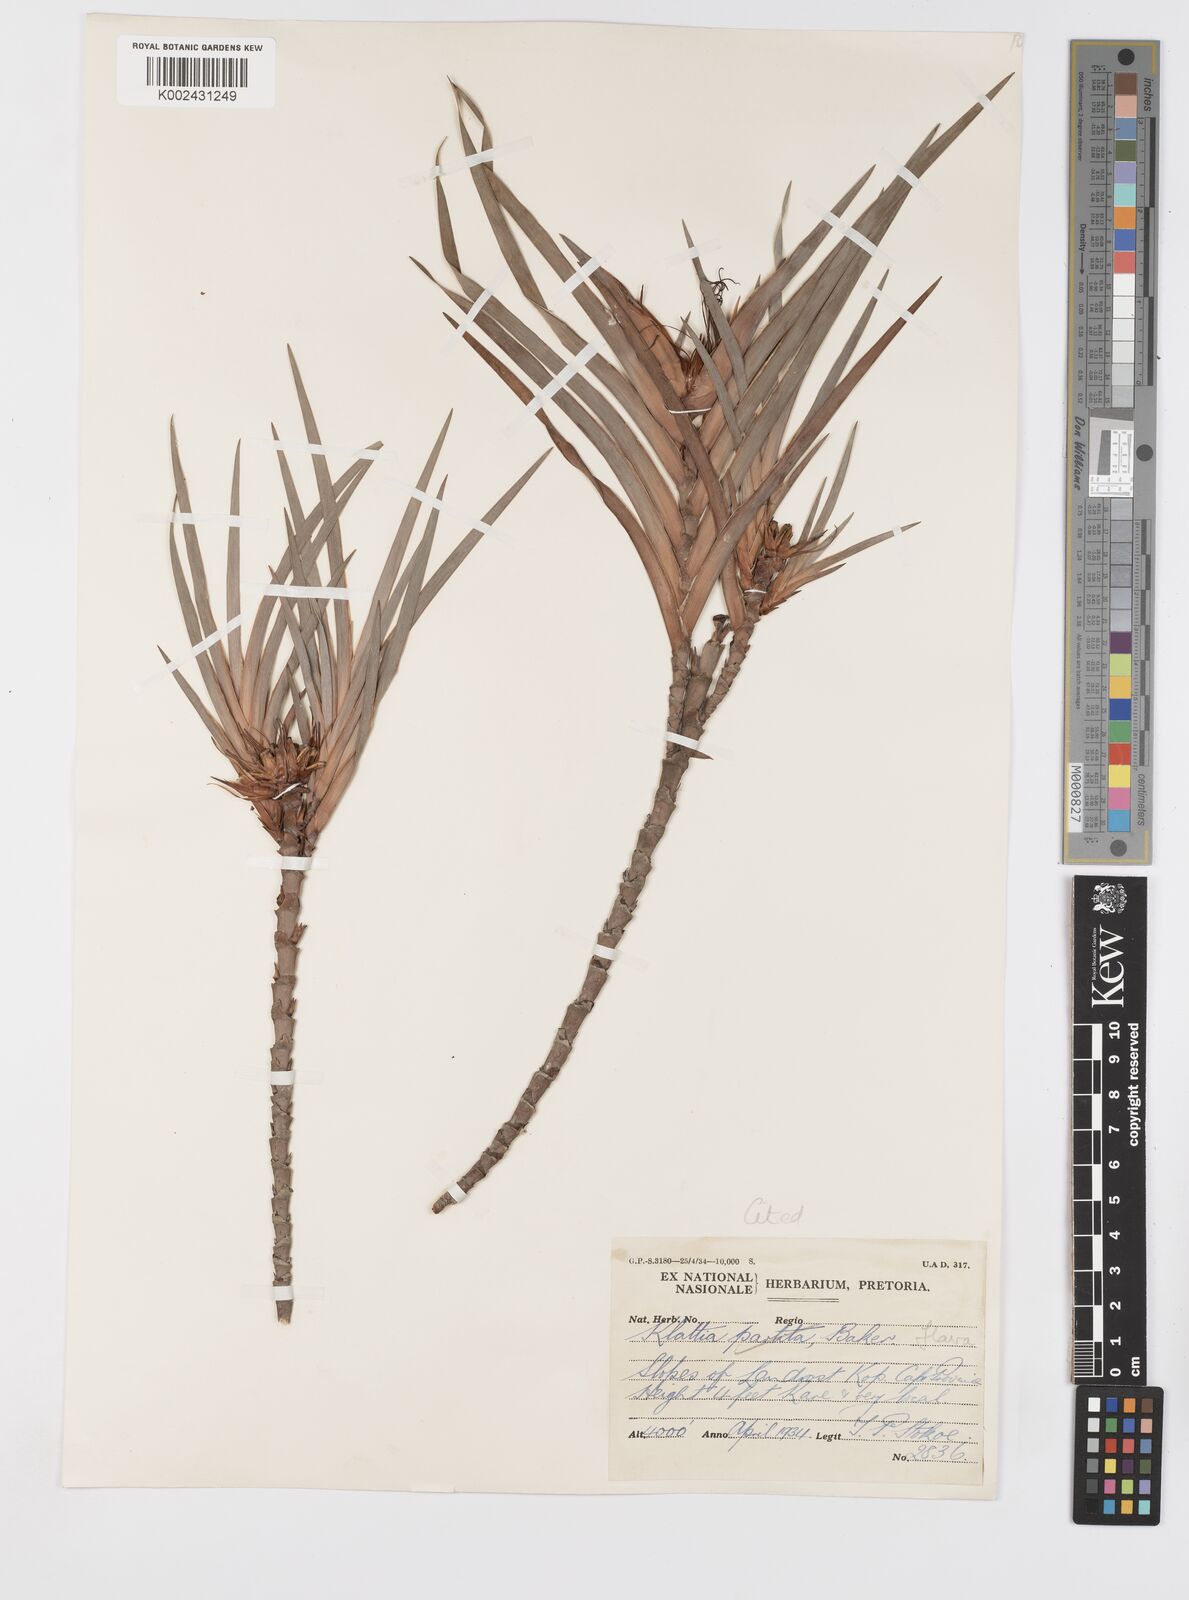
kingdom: Plantae
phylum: Tracheophyta
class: Liliopsida
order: Asparagales
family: Iridaceae
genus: Klattia
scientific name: Klattia flava
